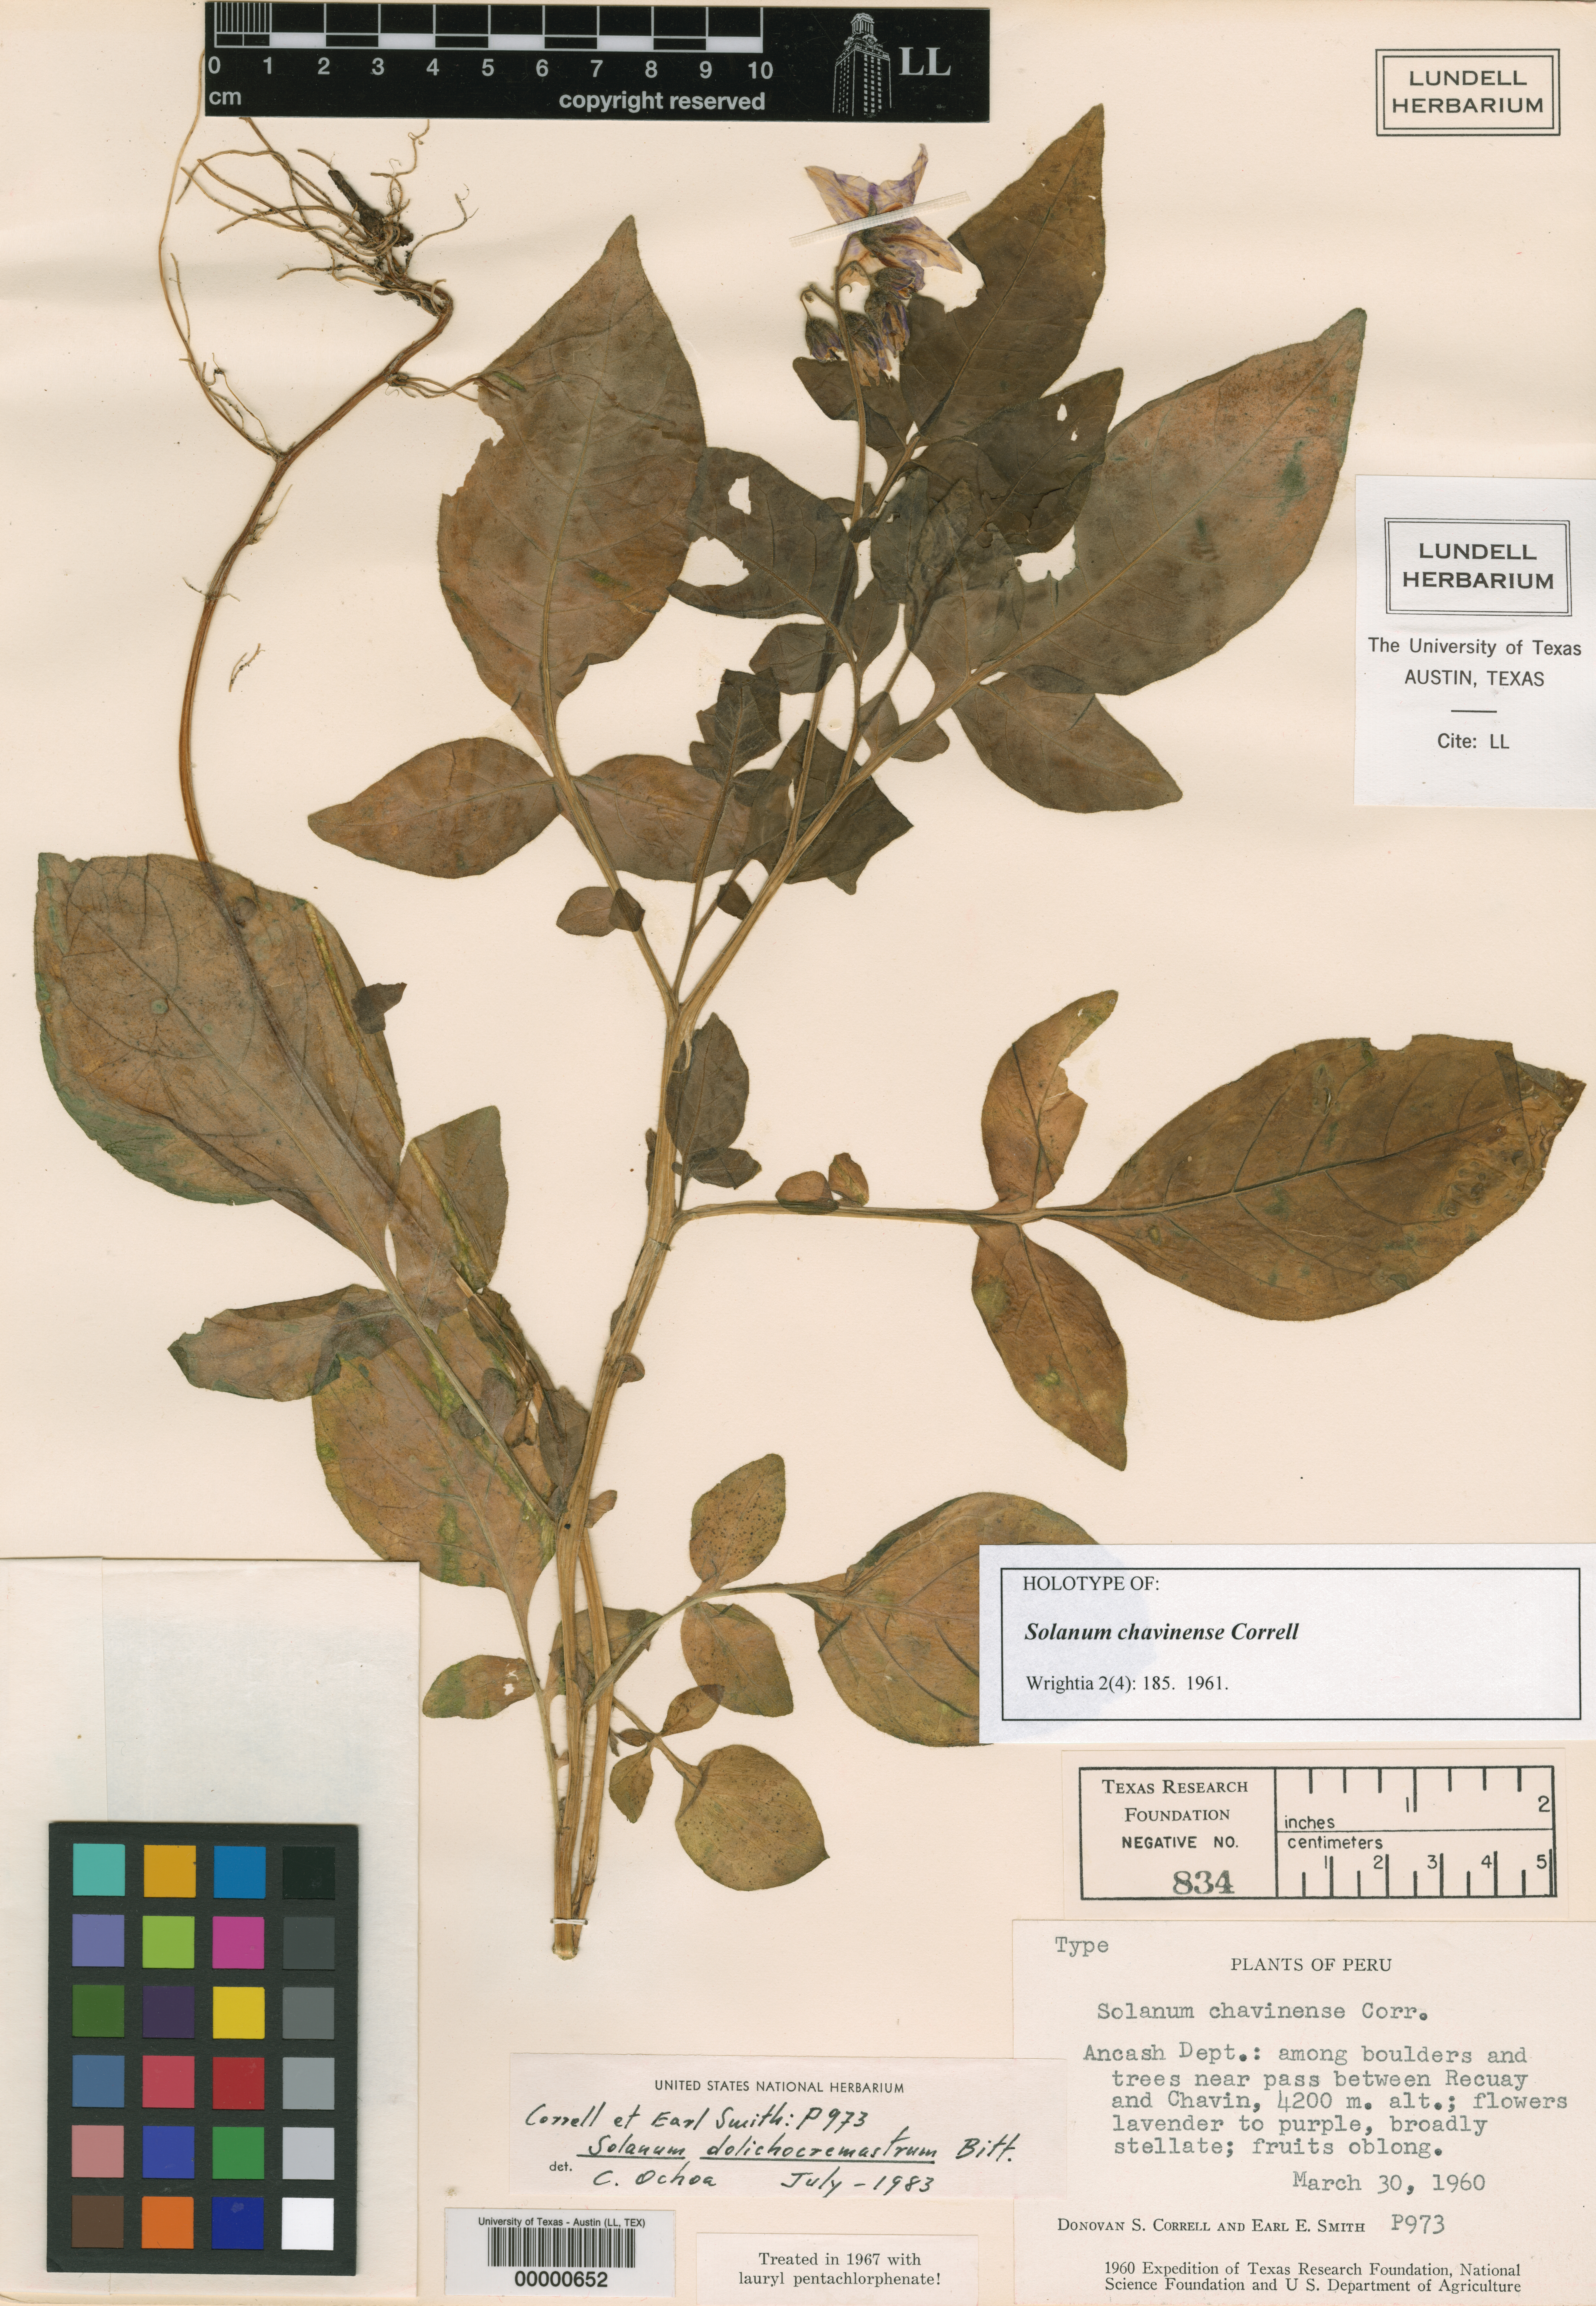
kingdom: Plantae
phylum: Tracheophyta
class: Magnoliopsida
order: Solanales
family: Solanaceae
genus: Solanum
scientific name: Solanum dolichocremastrum
